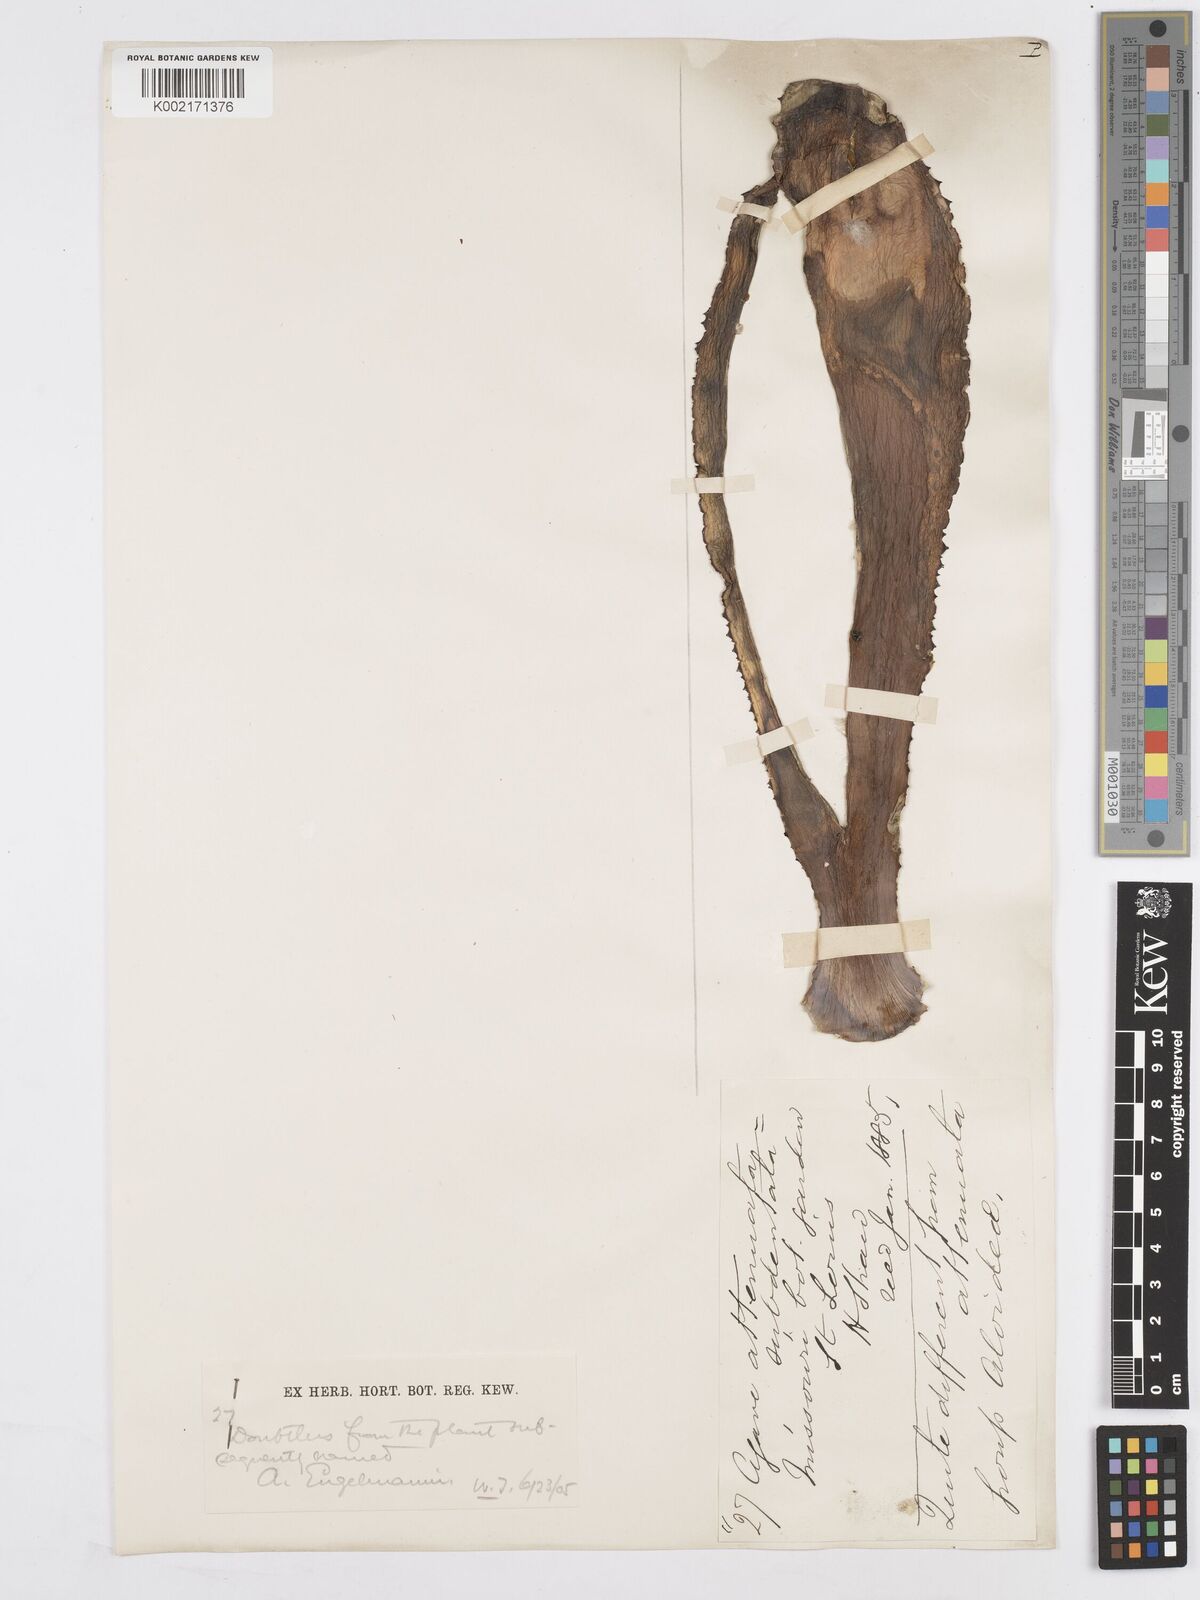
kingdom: Plantae
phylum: Tracheophyta
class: Liliopsida
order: Asparagales
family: Asparagaceae
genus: Agave
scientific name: Agave polyacantha
